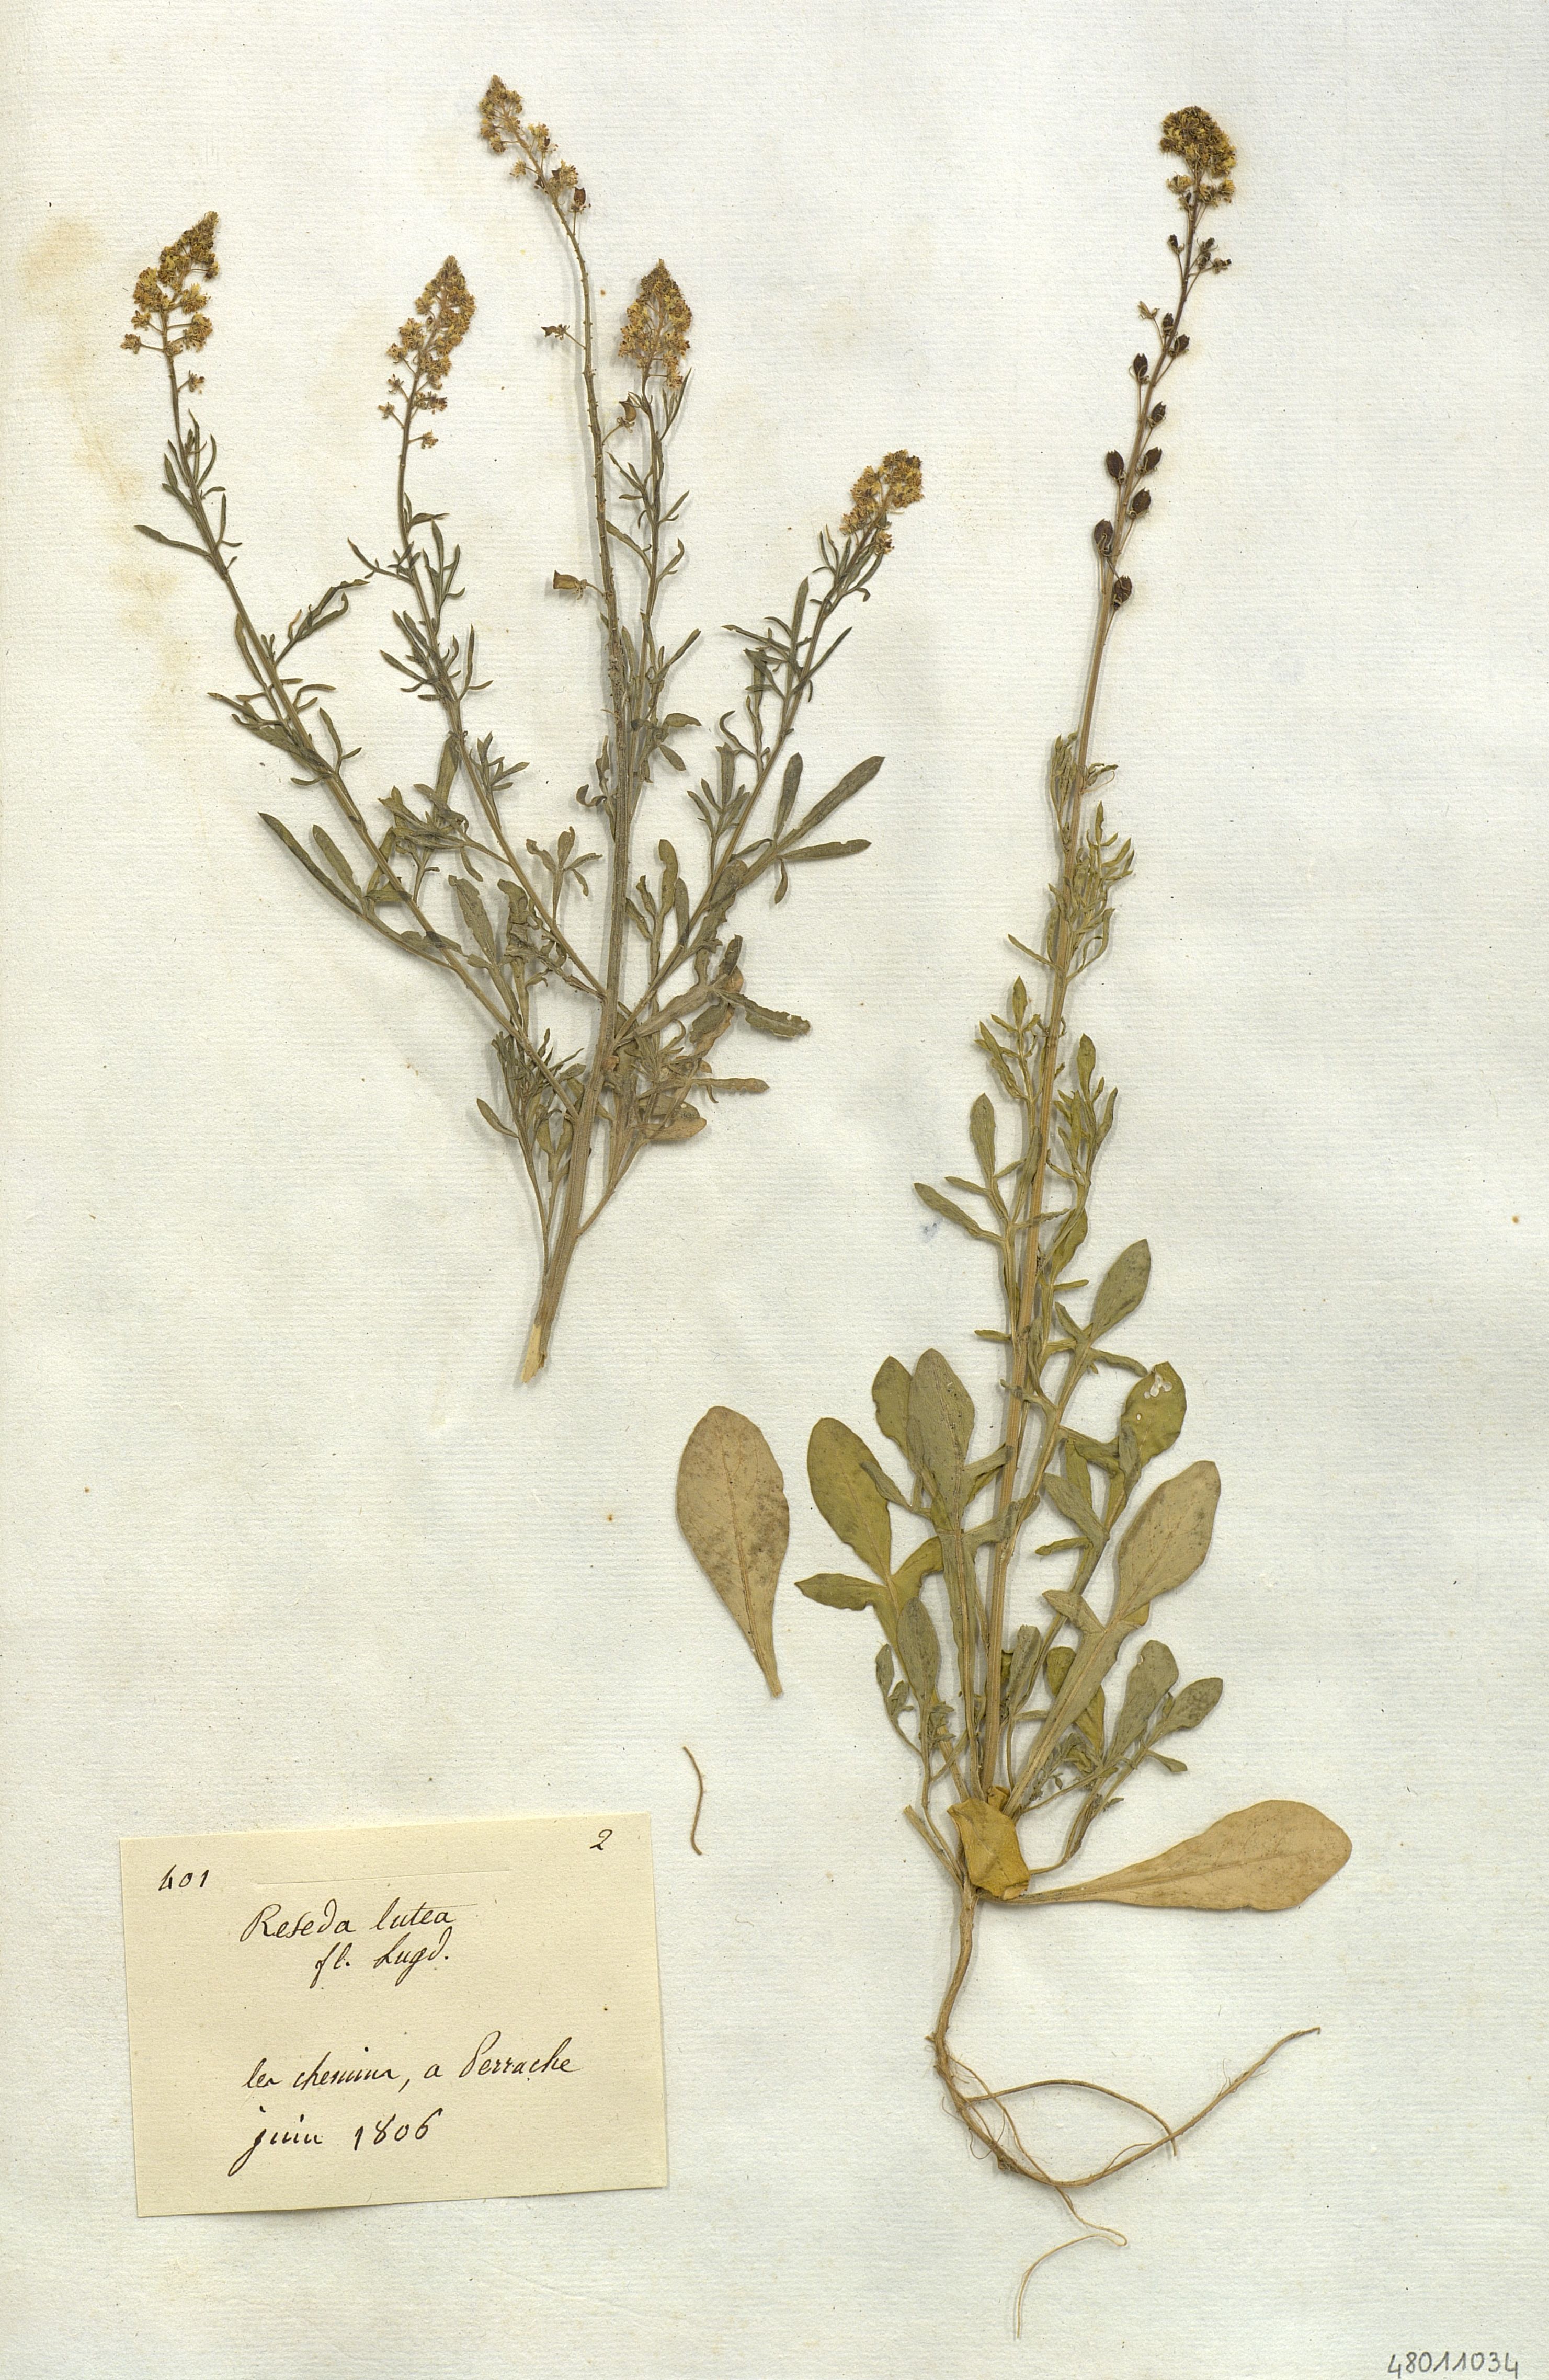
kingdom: Plantae
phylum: Tracheophyta
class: Magnoliopsida
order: Brassicales
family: Resedaceae
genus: Reseda
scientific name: Reseda lutea
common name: Wild mignonette
